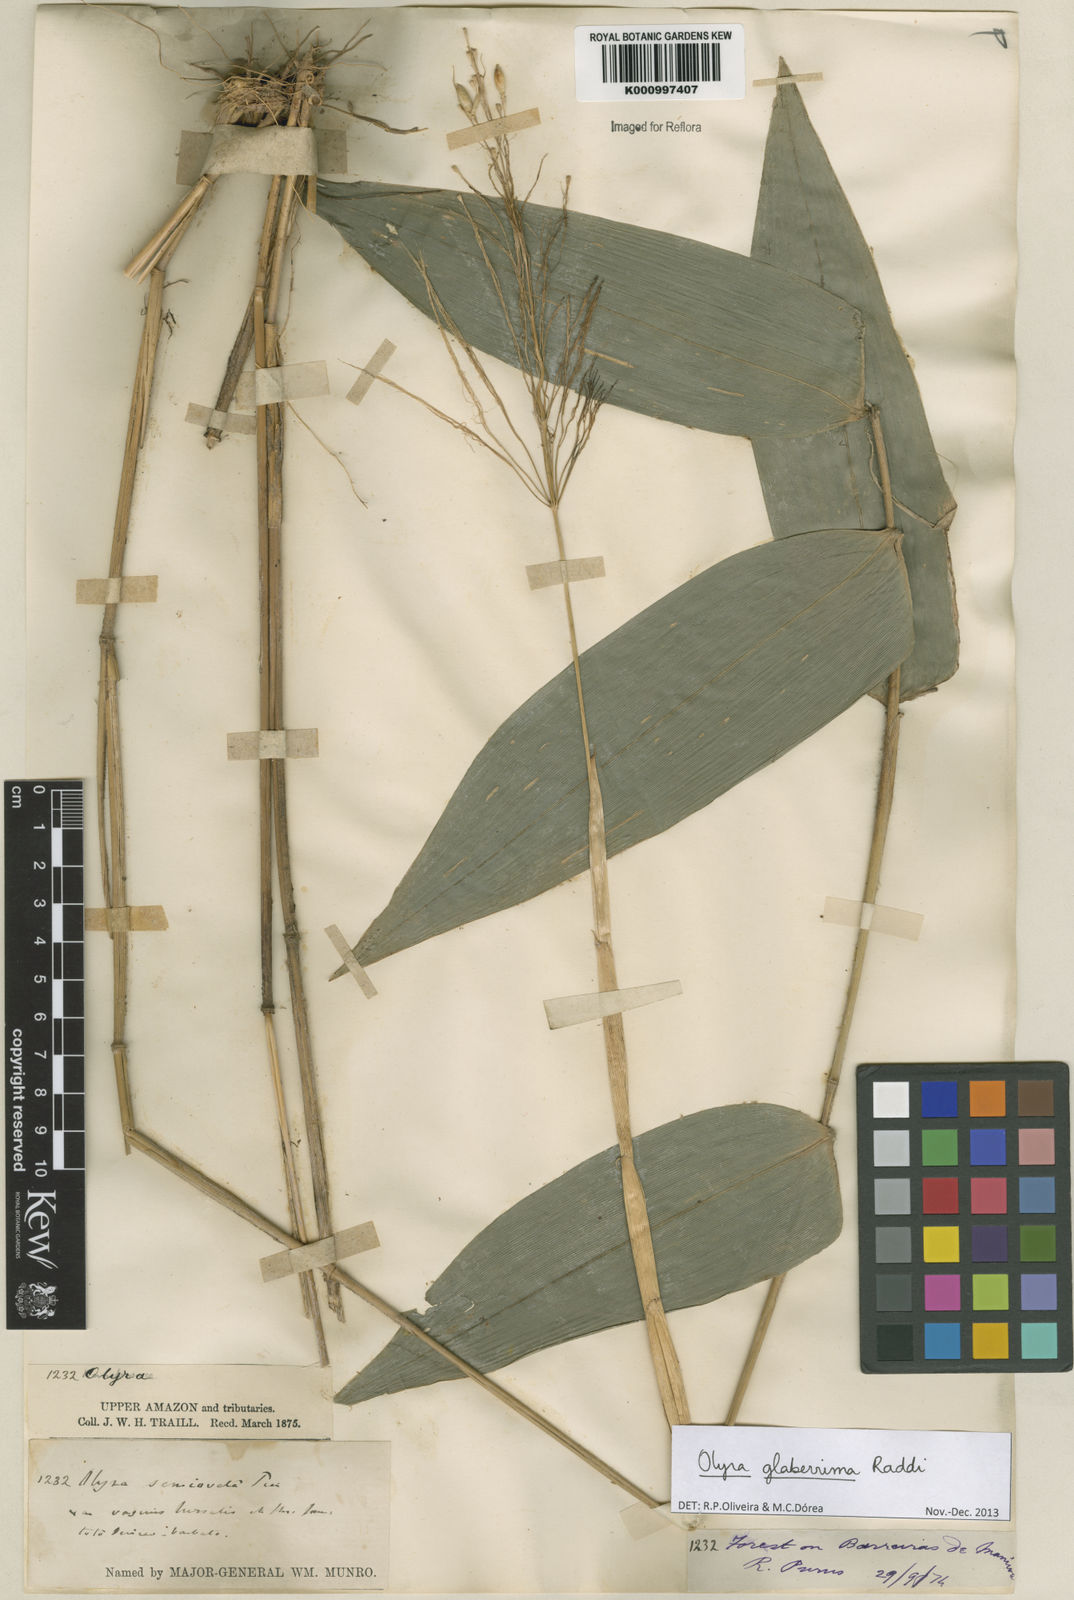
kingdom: Plantae
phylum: Tracheophyta
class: Liliopsida
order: Poales
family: Poaceae
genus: Olyra
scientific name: Olyra glaberrima
